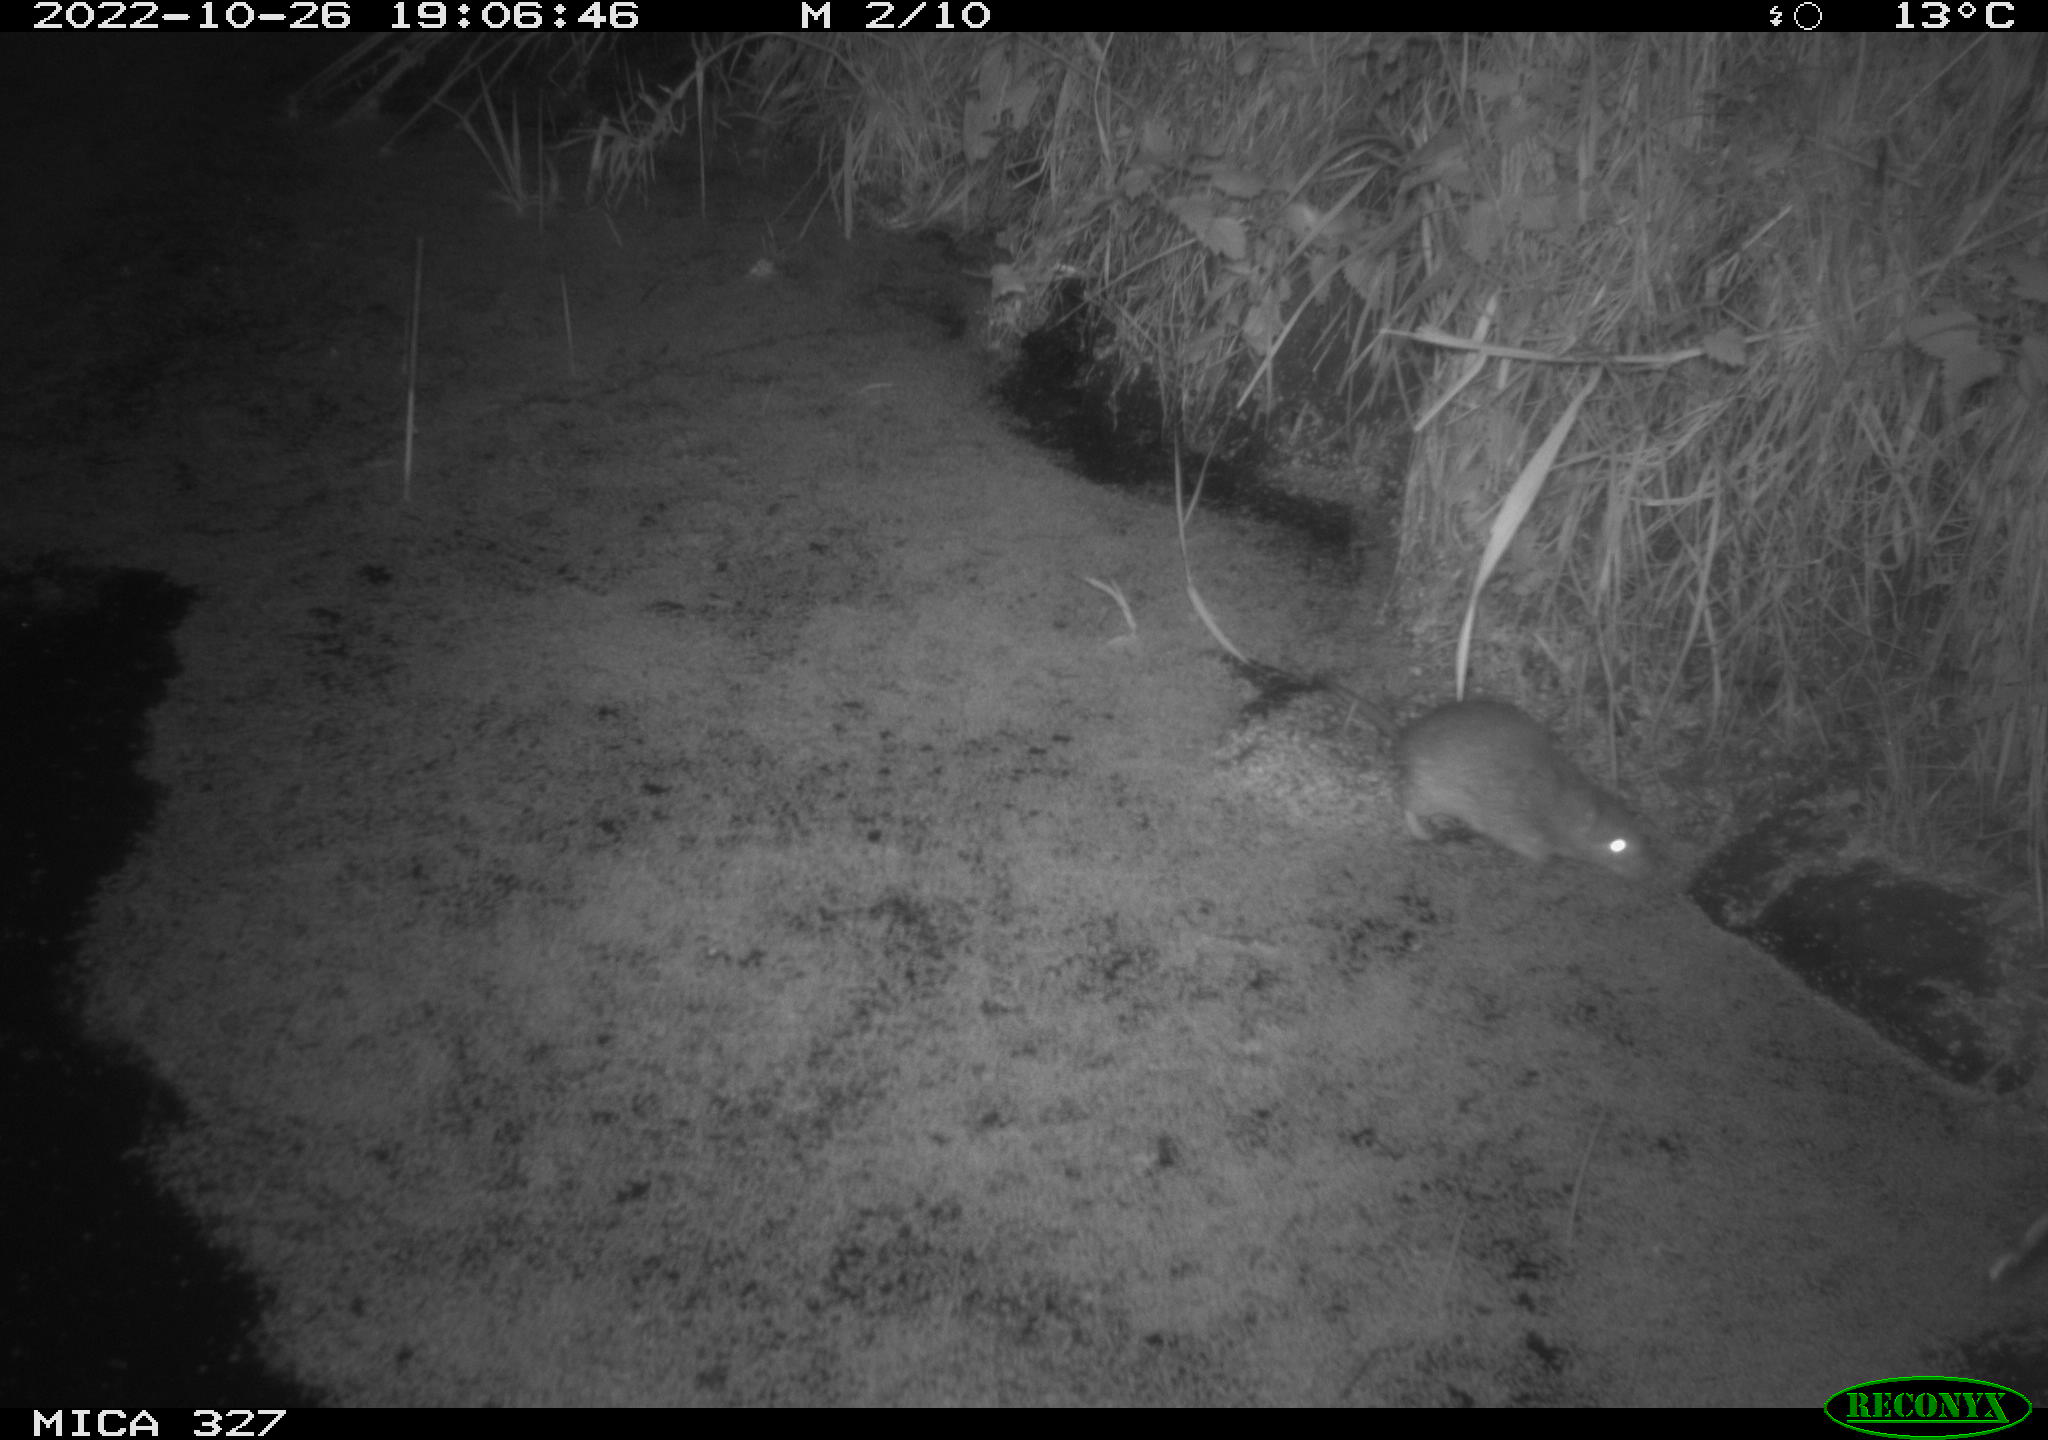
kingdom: Animalia
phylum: Chordata
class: Mammalia
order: Rodentia
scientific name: Rodentia
